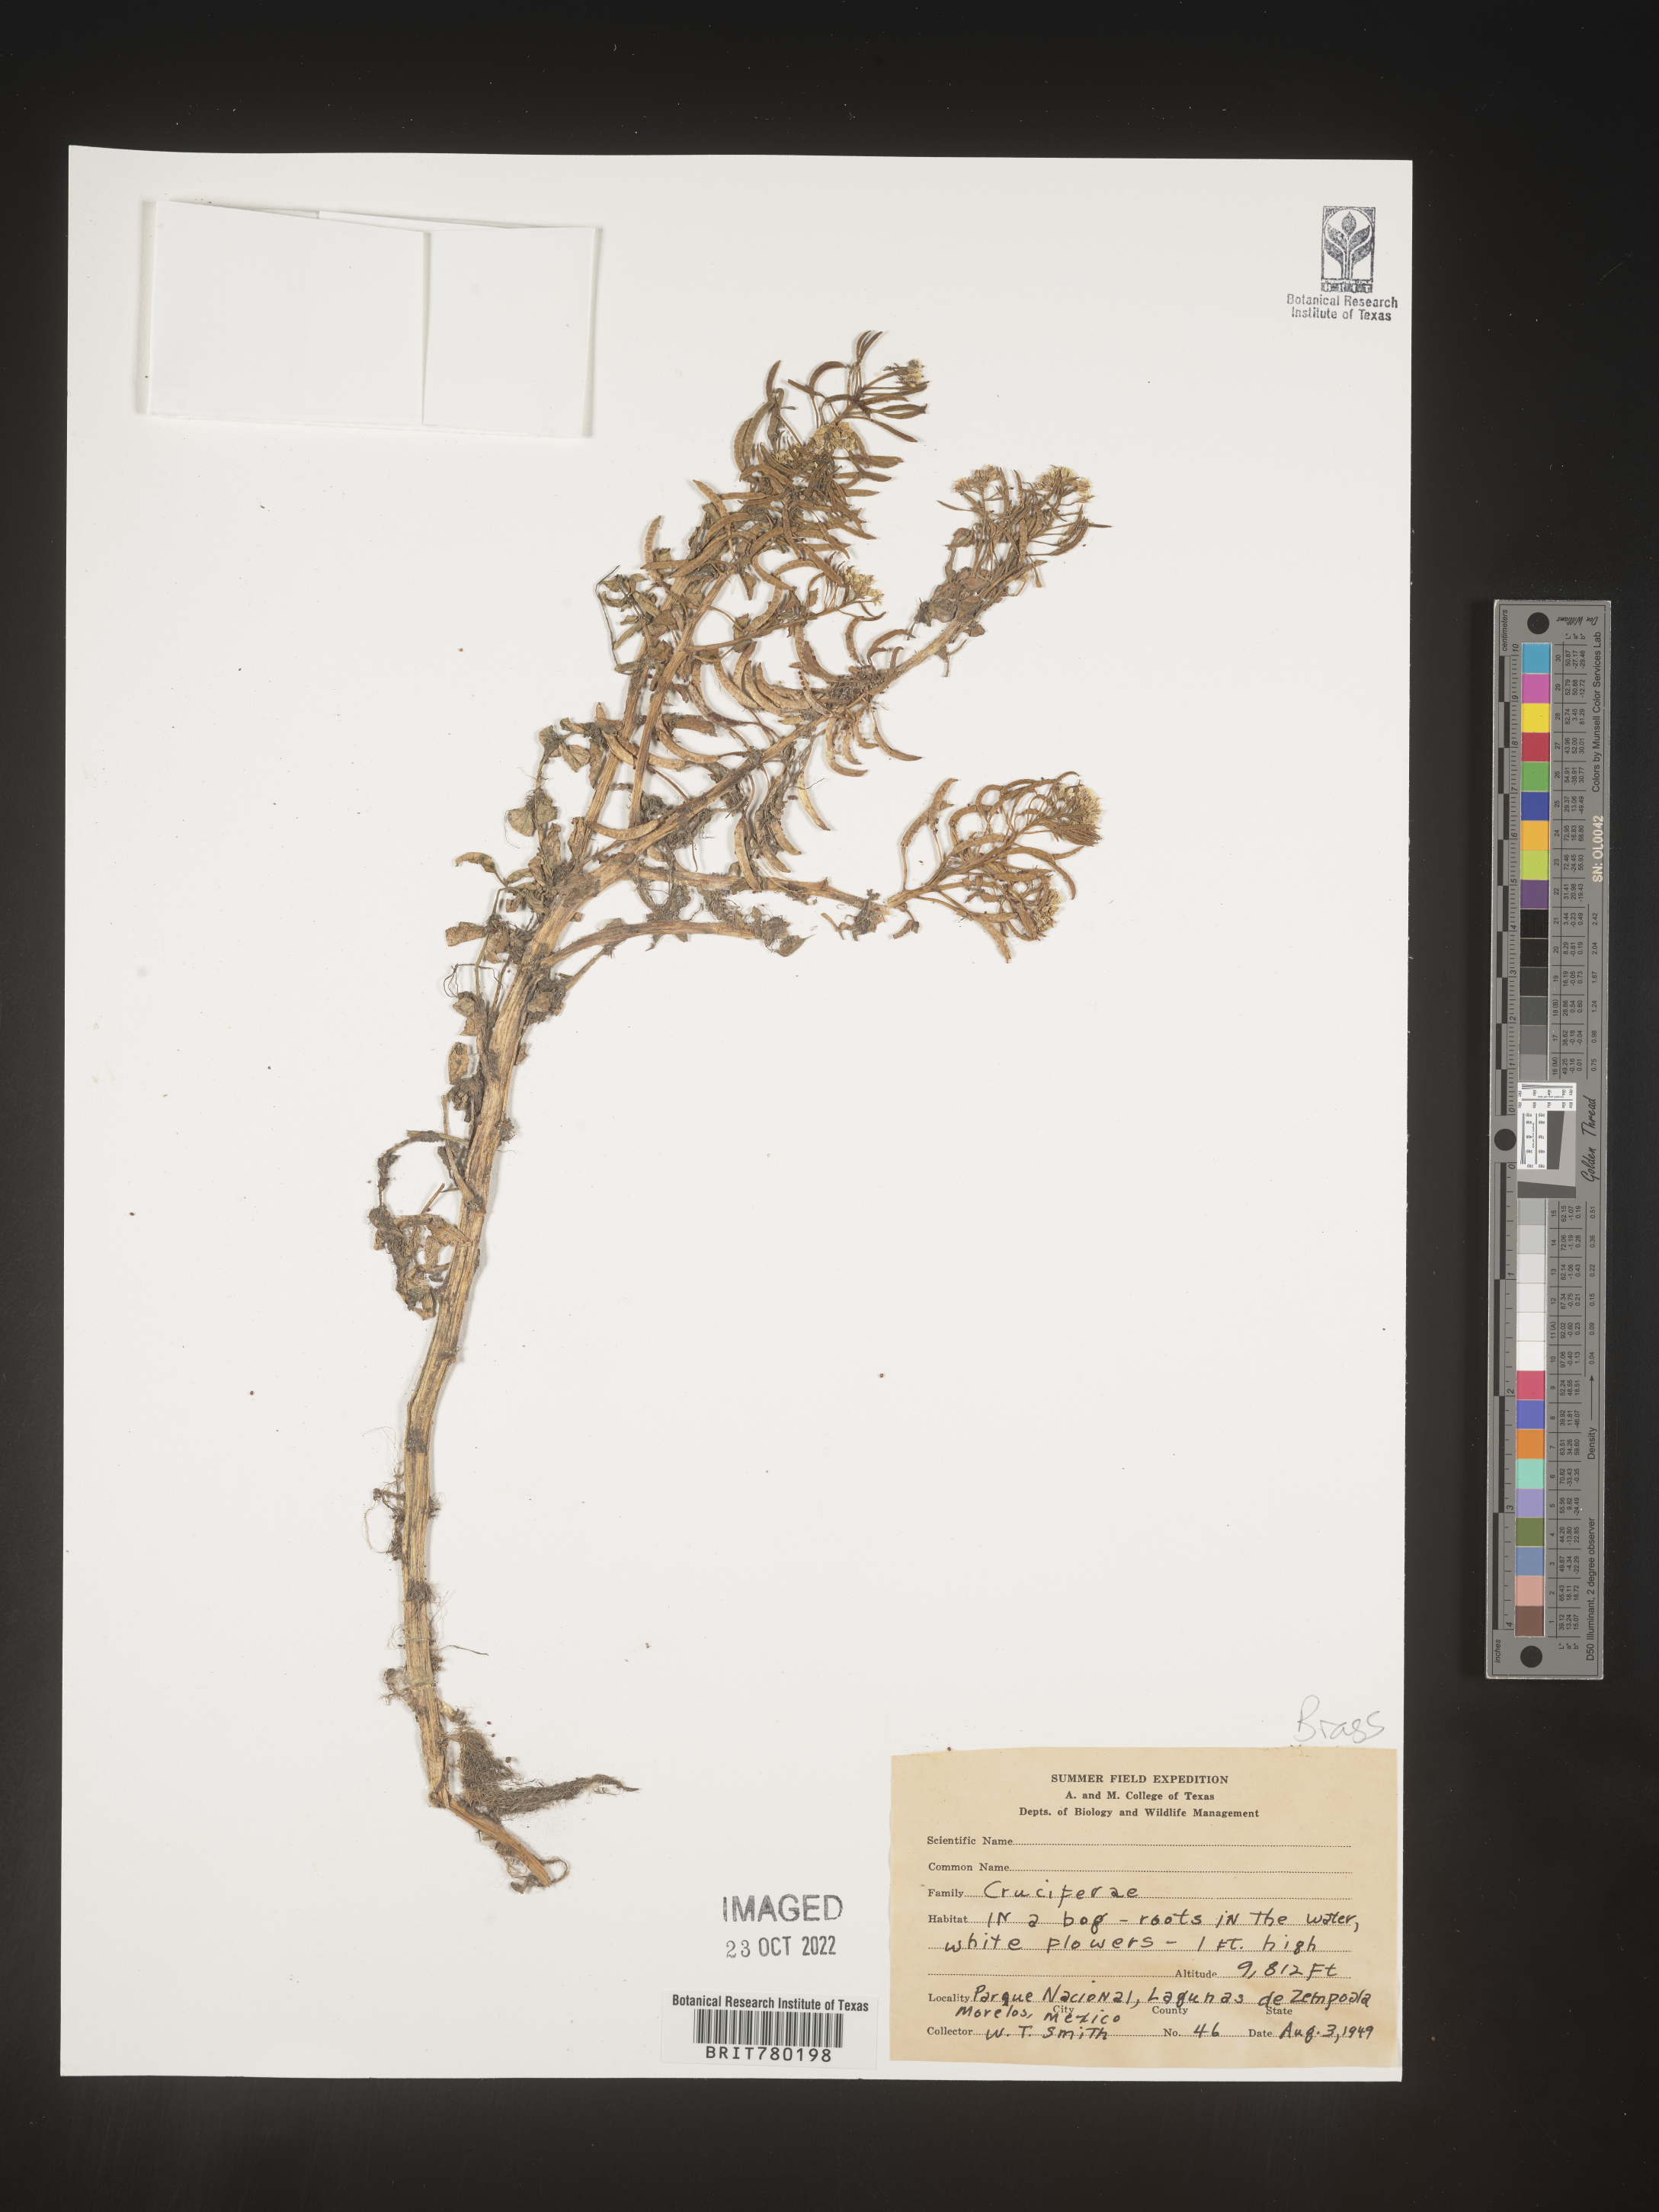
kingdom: Plantae
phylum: Tracheophyta
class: Magnoliopsida
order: Brassicales
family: Brassicaceae
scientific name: Brassicaceae
